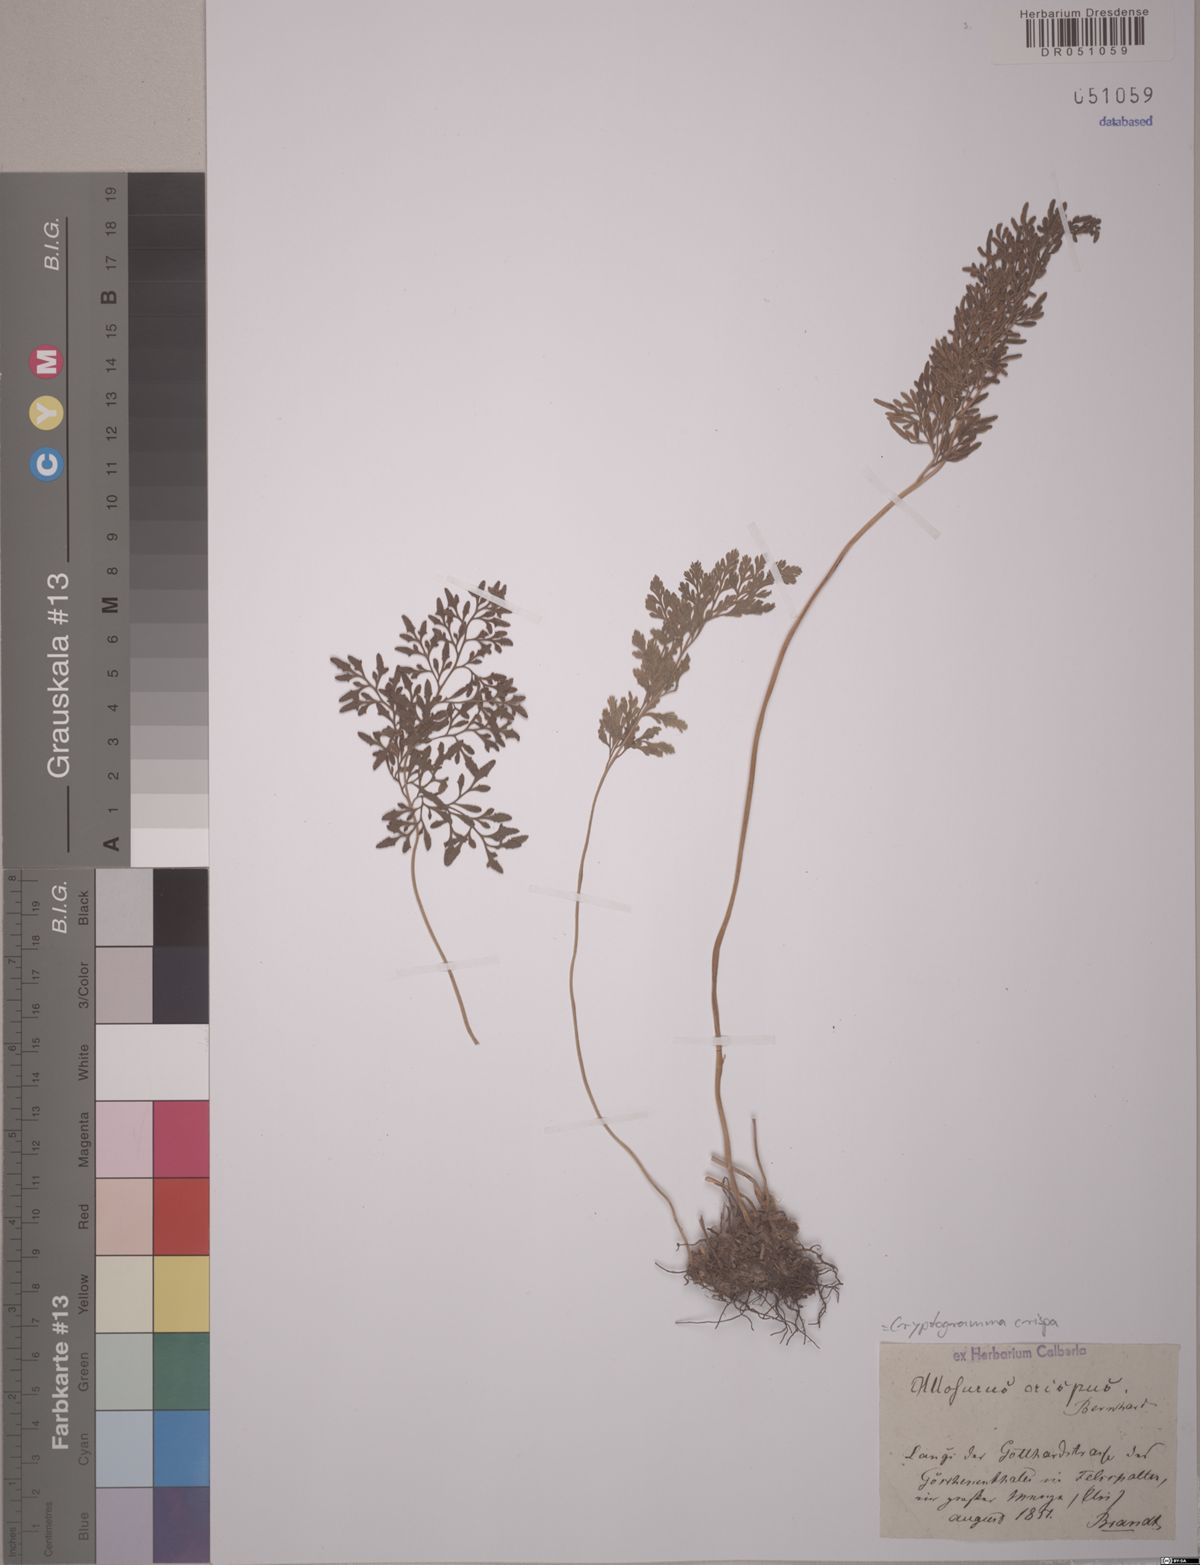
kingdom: Plantae
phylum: Tracheophyta
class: Polypodiopsida
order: Polypodiales
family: Pteridaceae
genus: Cryptogramma
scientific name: Cryptogramma crispa
